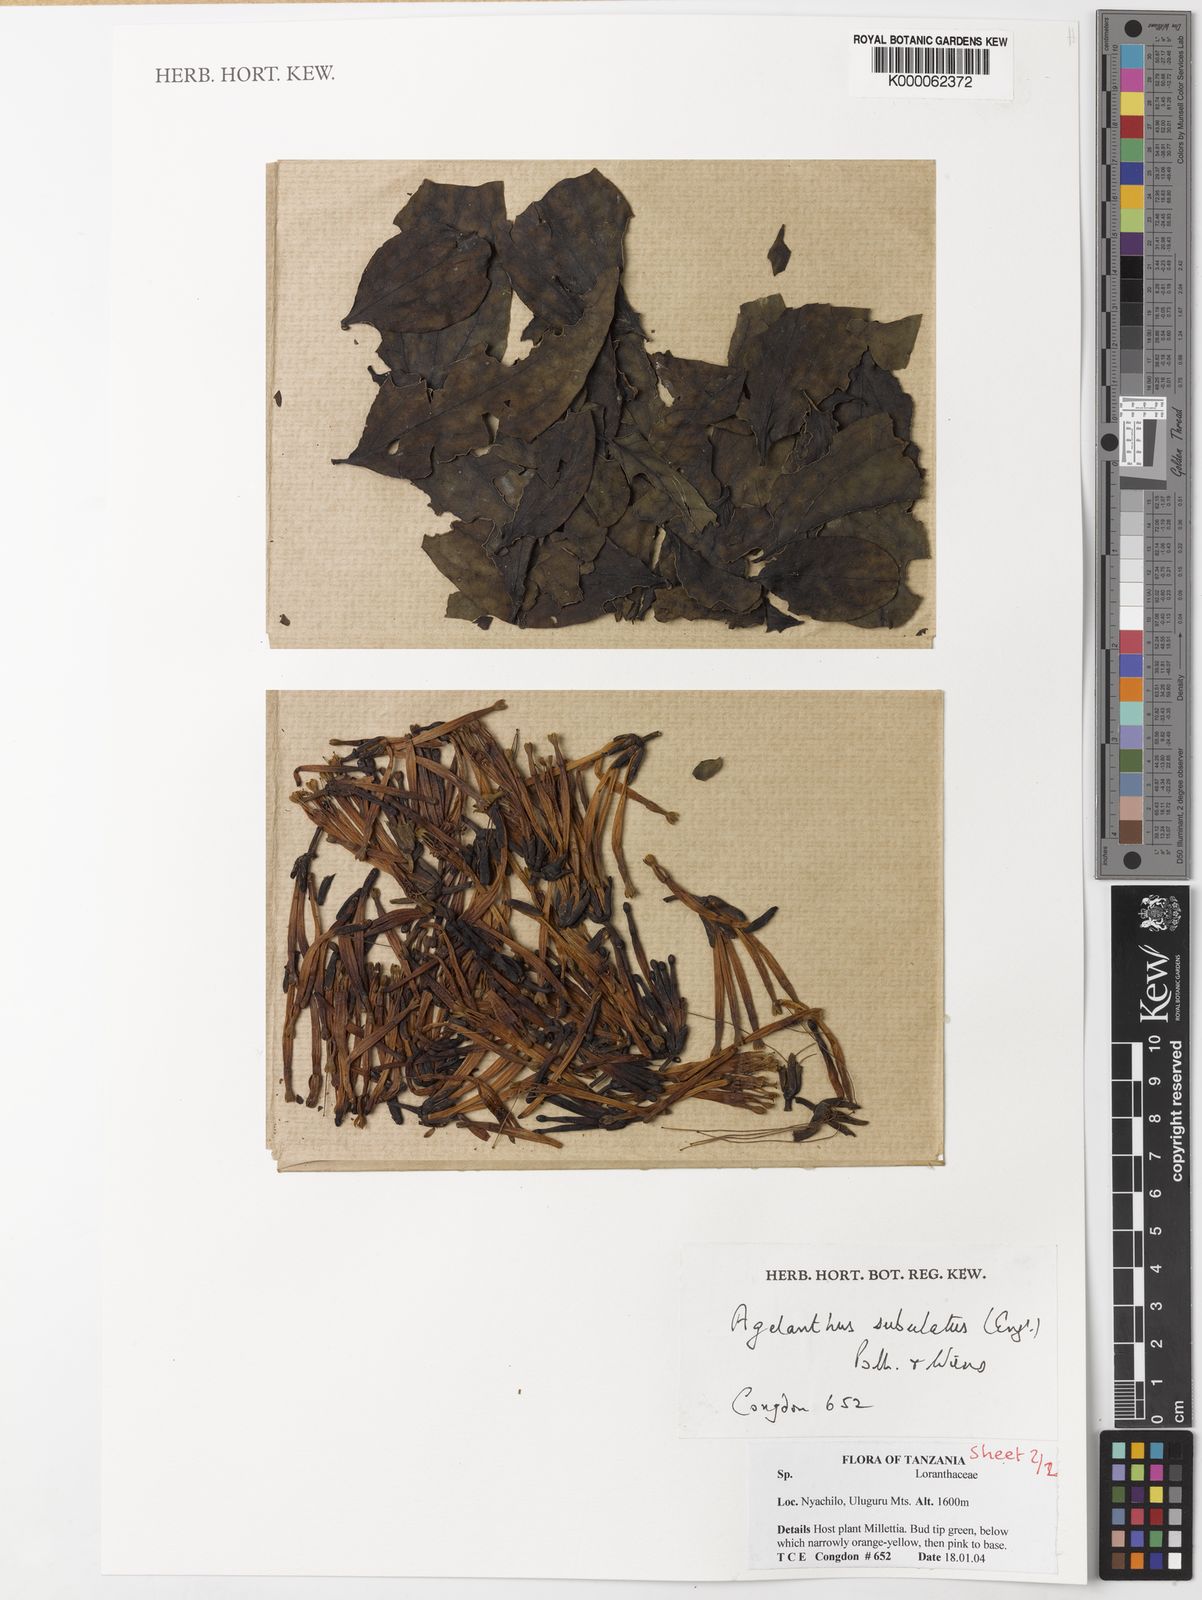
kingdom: Plantae
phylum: Tracheophyta
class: Magnoliopsida
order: Santalales
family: Loranthaceae
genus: Agelanthus
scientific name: Agelanthus subulatus
